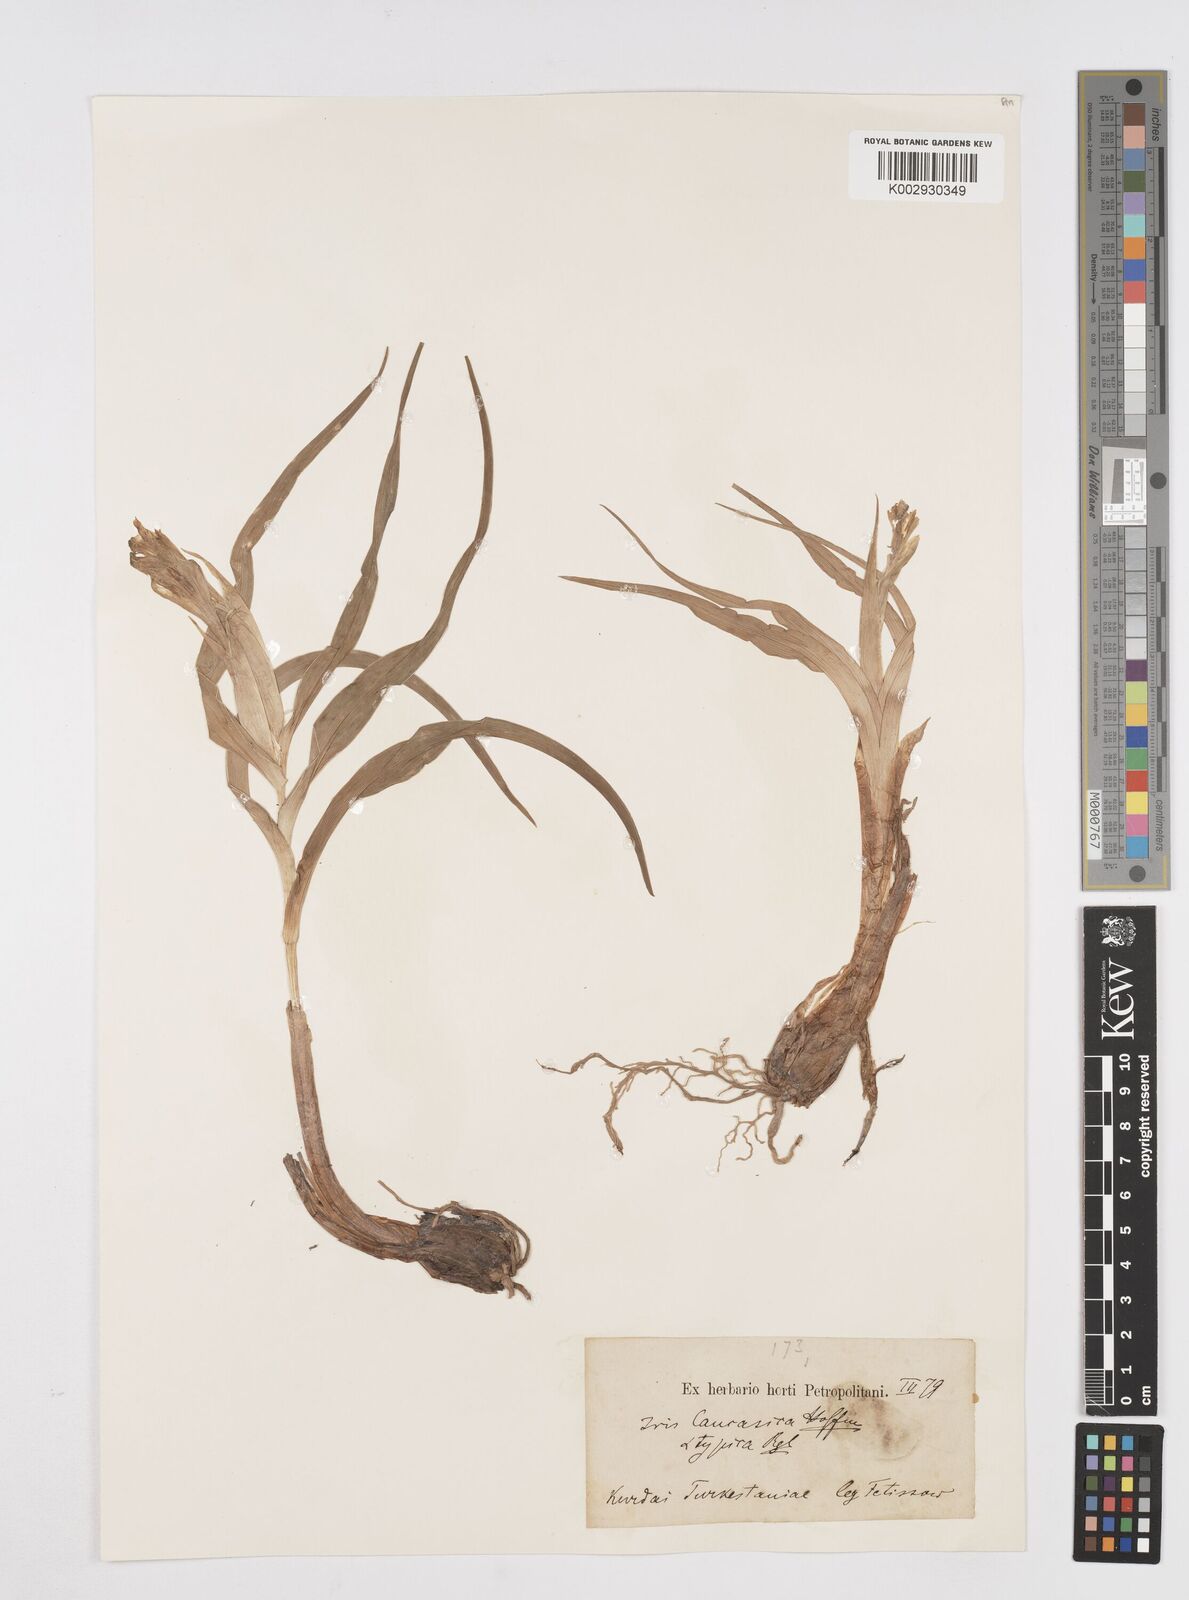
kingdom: Plantae
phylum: Tracheophyta
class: Liliopsida
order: Asparagales
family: Iridaceae
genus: Iris
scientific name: Iris orchioides
